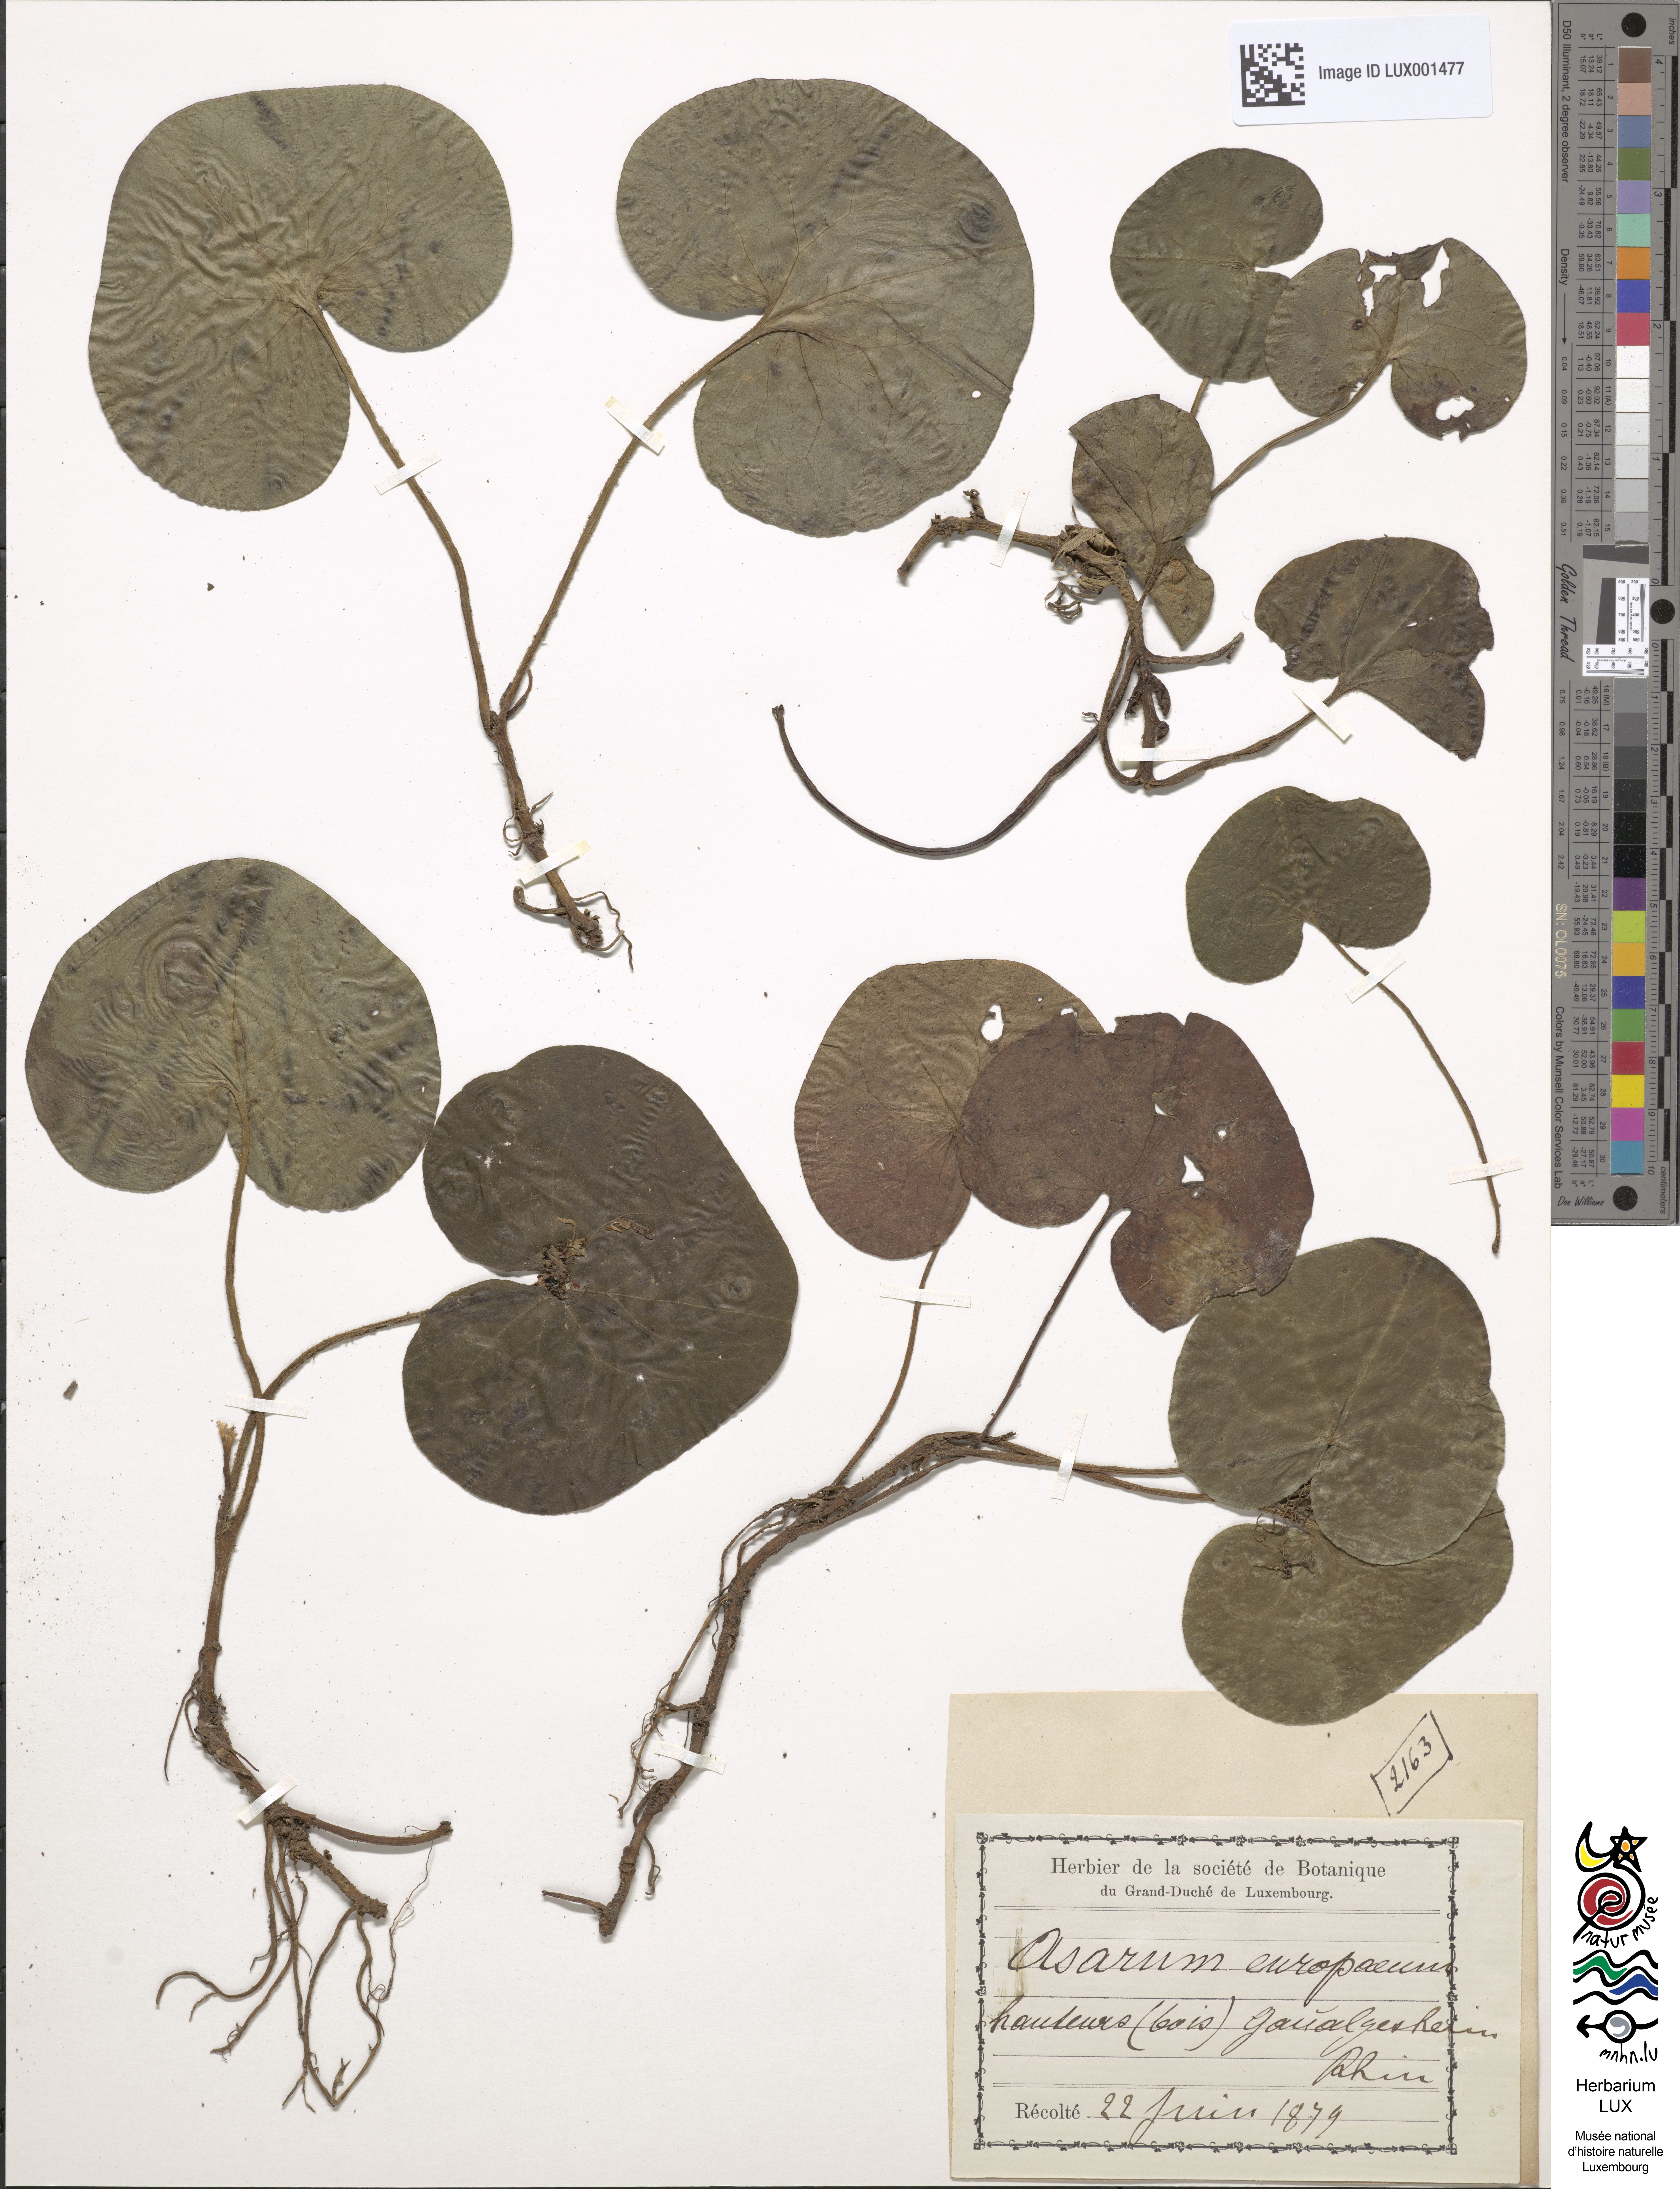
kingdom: Plantae
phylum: Tracheophyta
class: Magnoliopsida
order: Piperales
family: Aristolochiaceae
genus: Asarum
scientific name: Asarum europaeum
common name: Asarabacca
